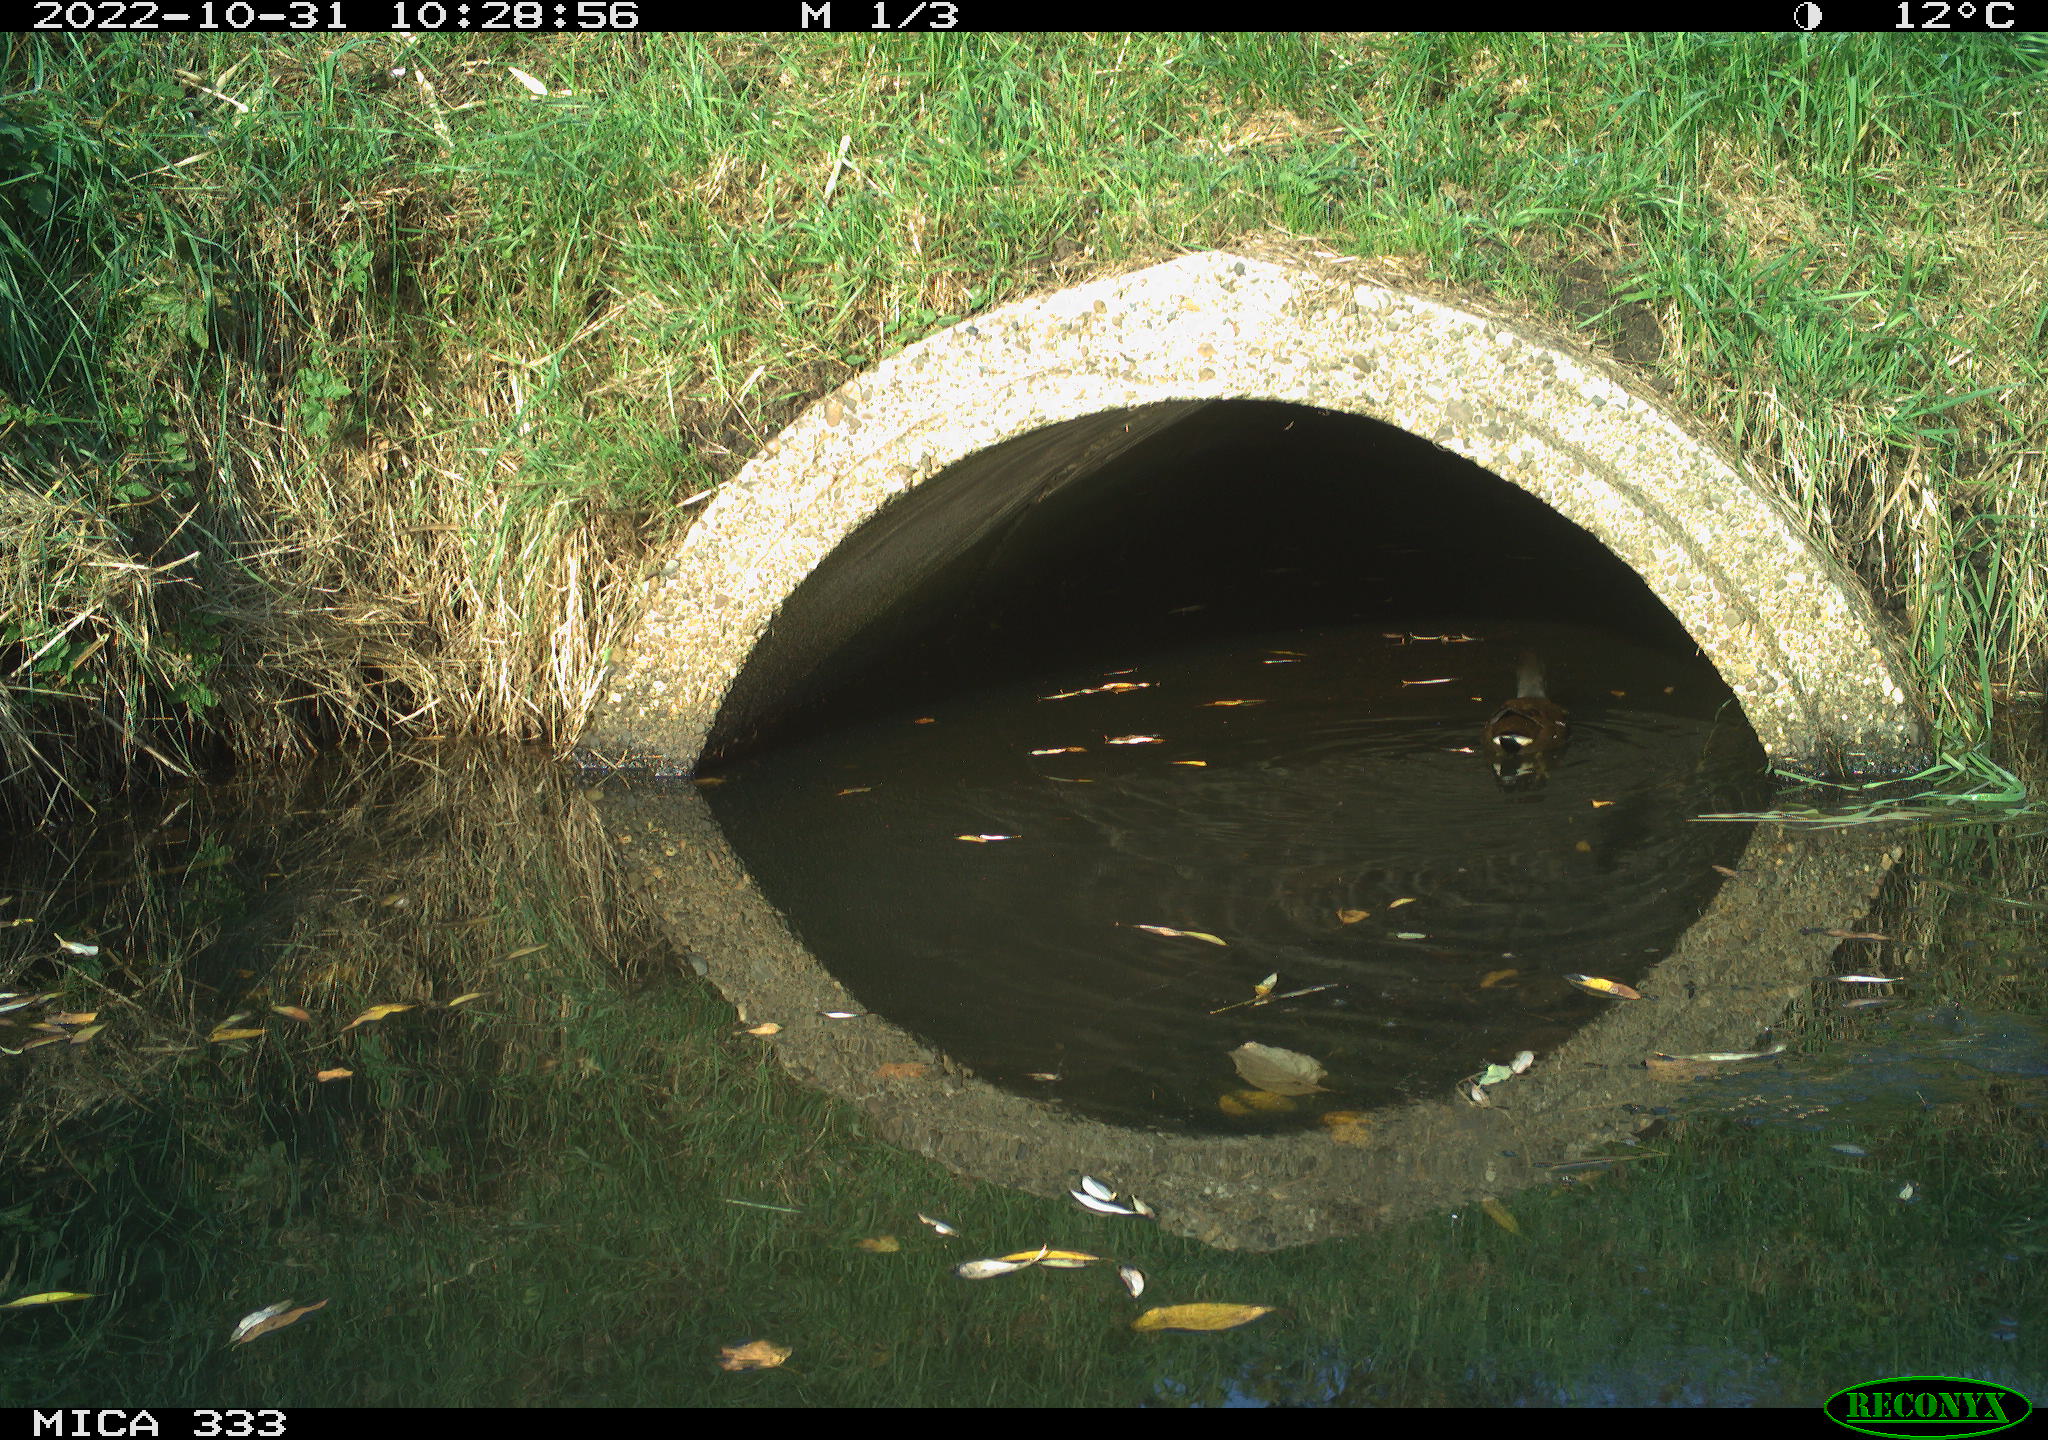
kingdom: Animalia
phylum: Chordata
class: Aves
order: Gruiformes
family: Rallidae
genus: Gallinula
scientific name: Gallinula chloropus
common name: Common moorhen
